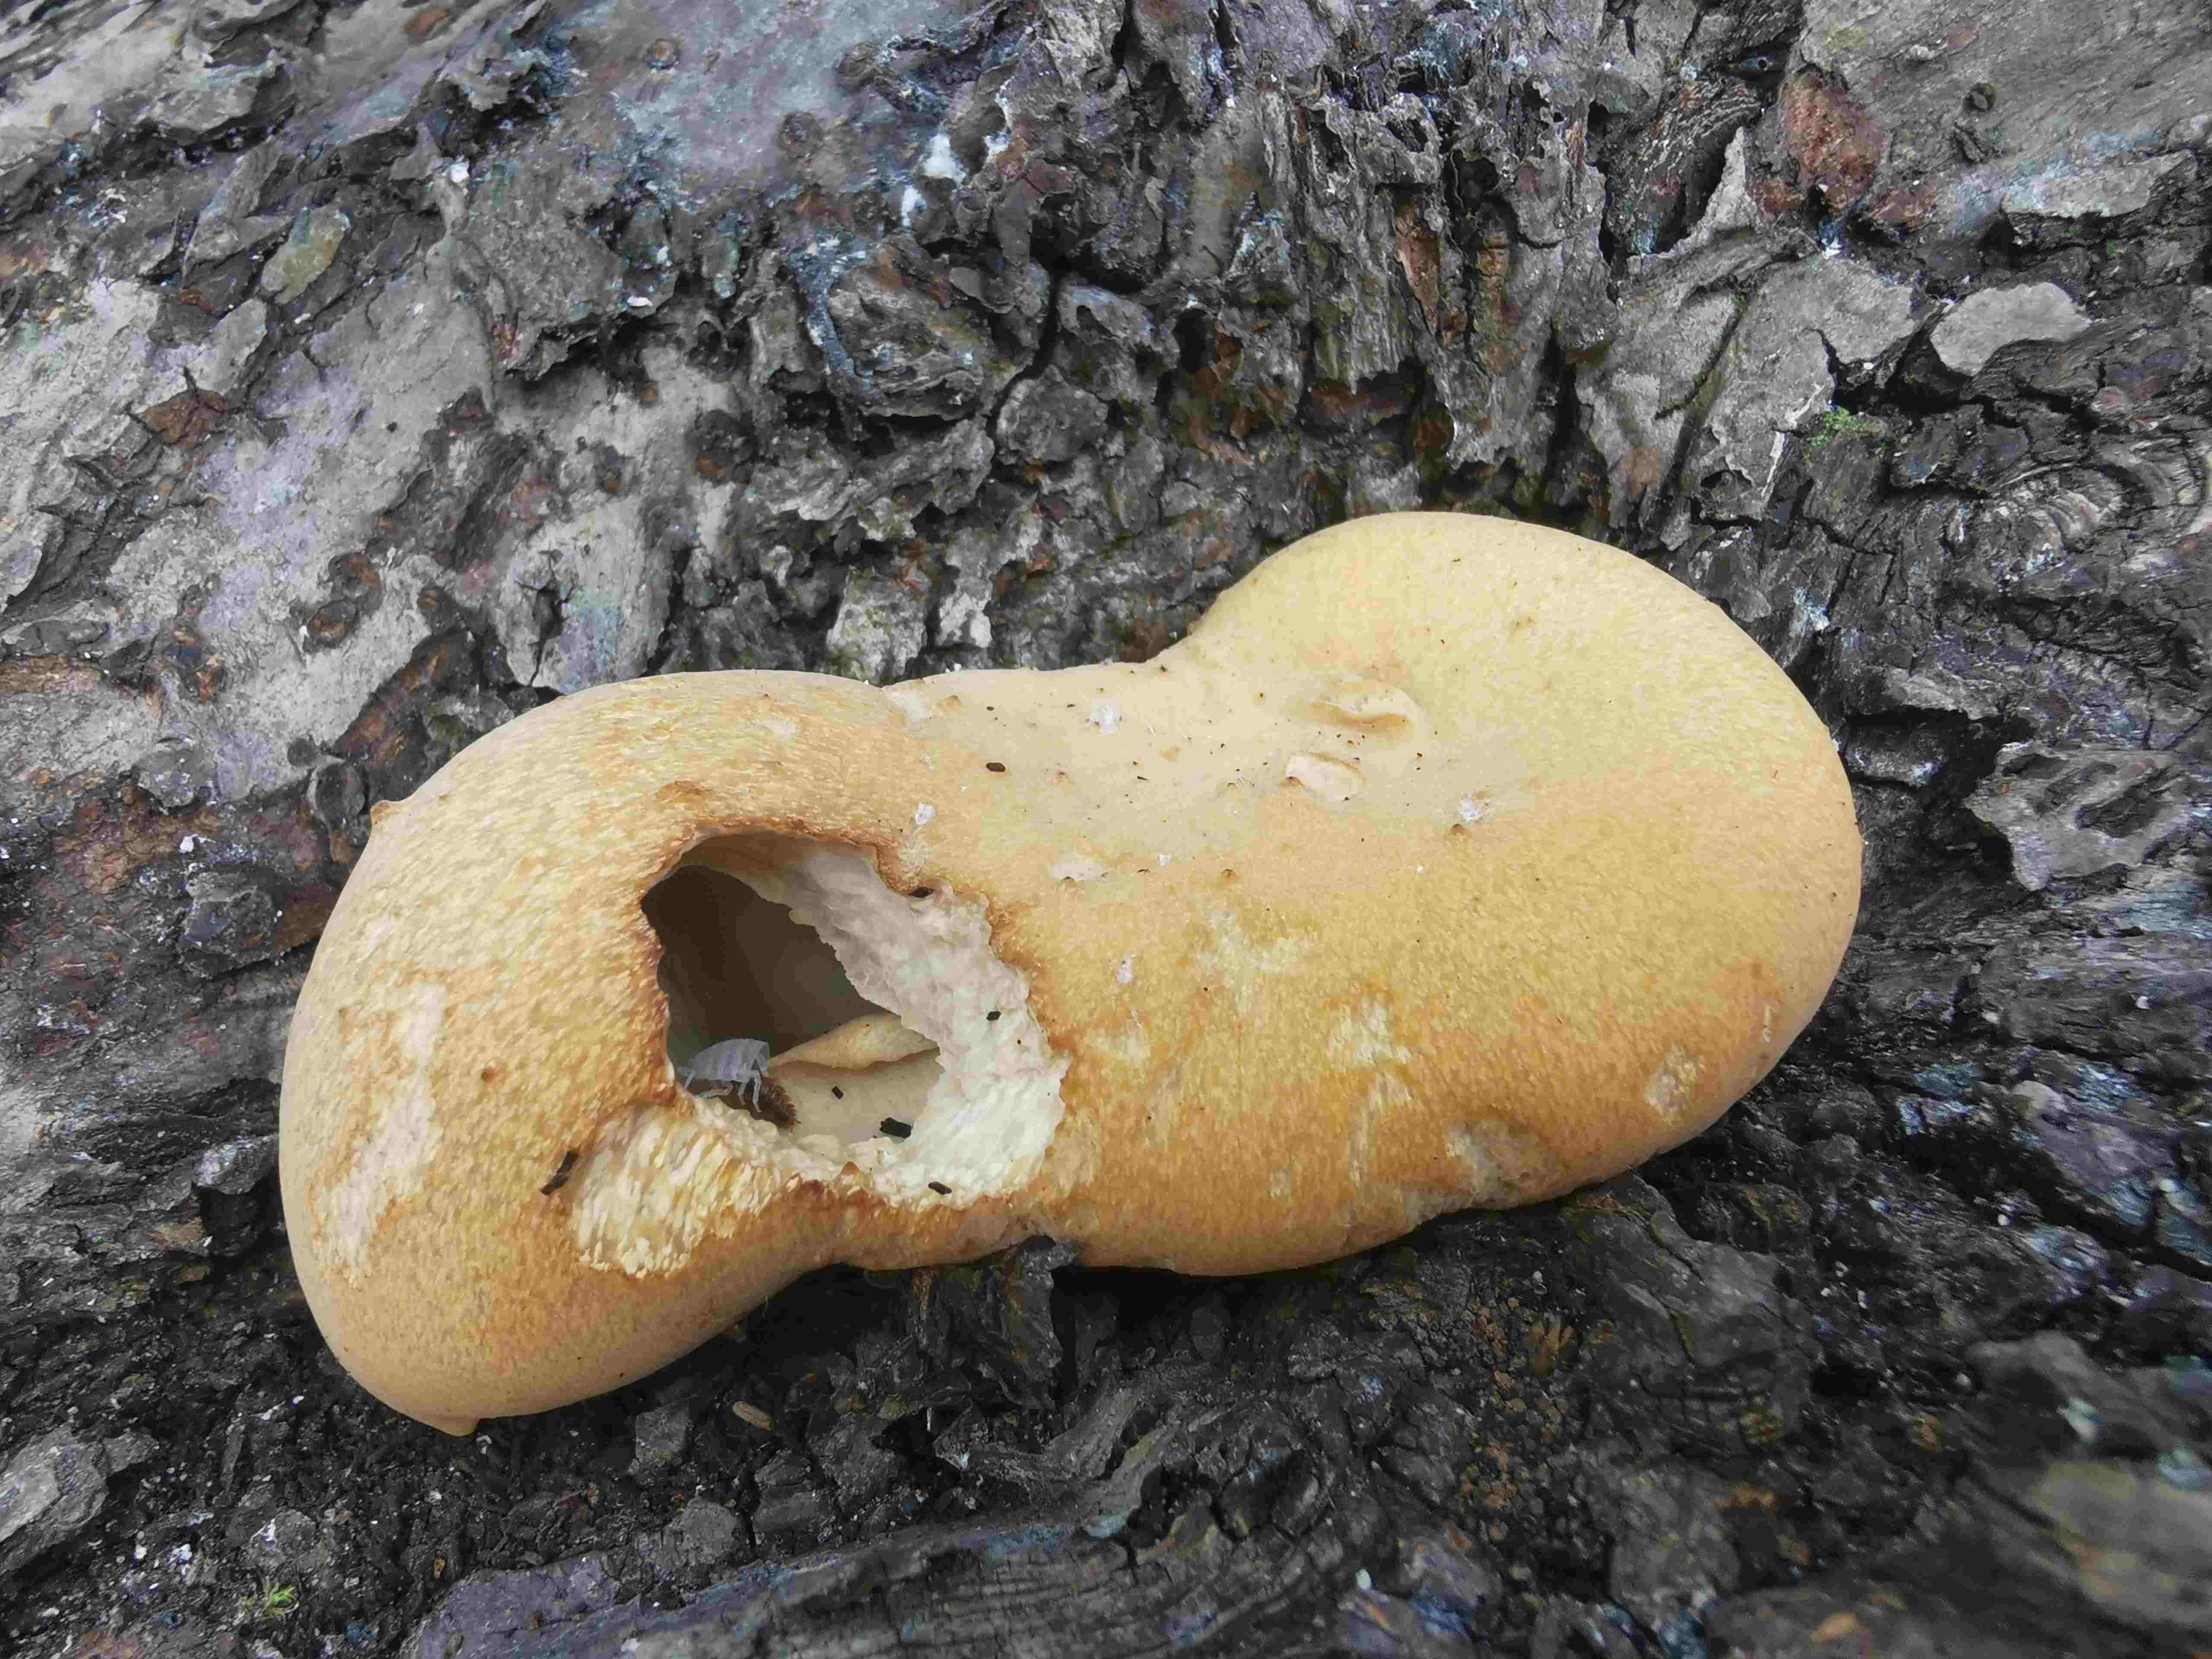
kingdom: Fungi
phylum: Basidiomycota
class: Agaricomycetes
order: Polyporales
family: Polyporaceae
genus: Cerioporus
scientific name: Cerioporus varius
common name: foranderlig stilkporesvamp
